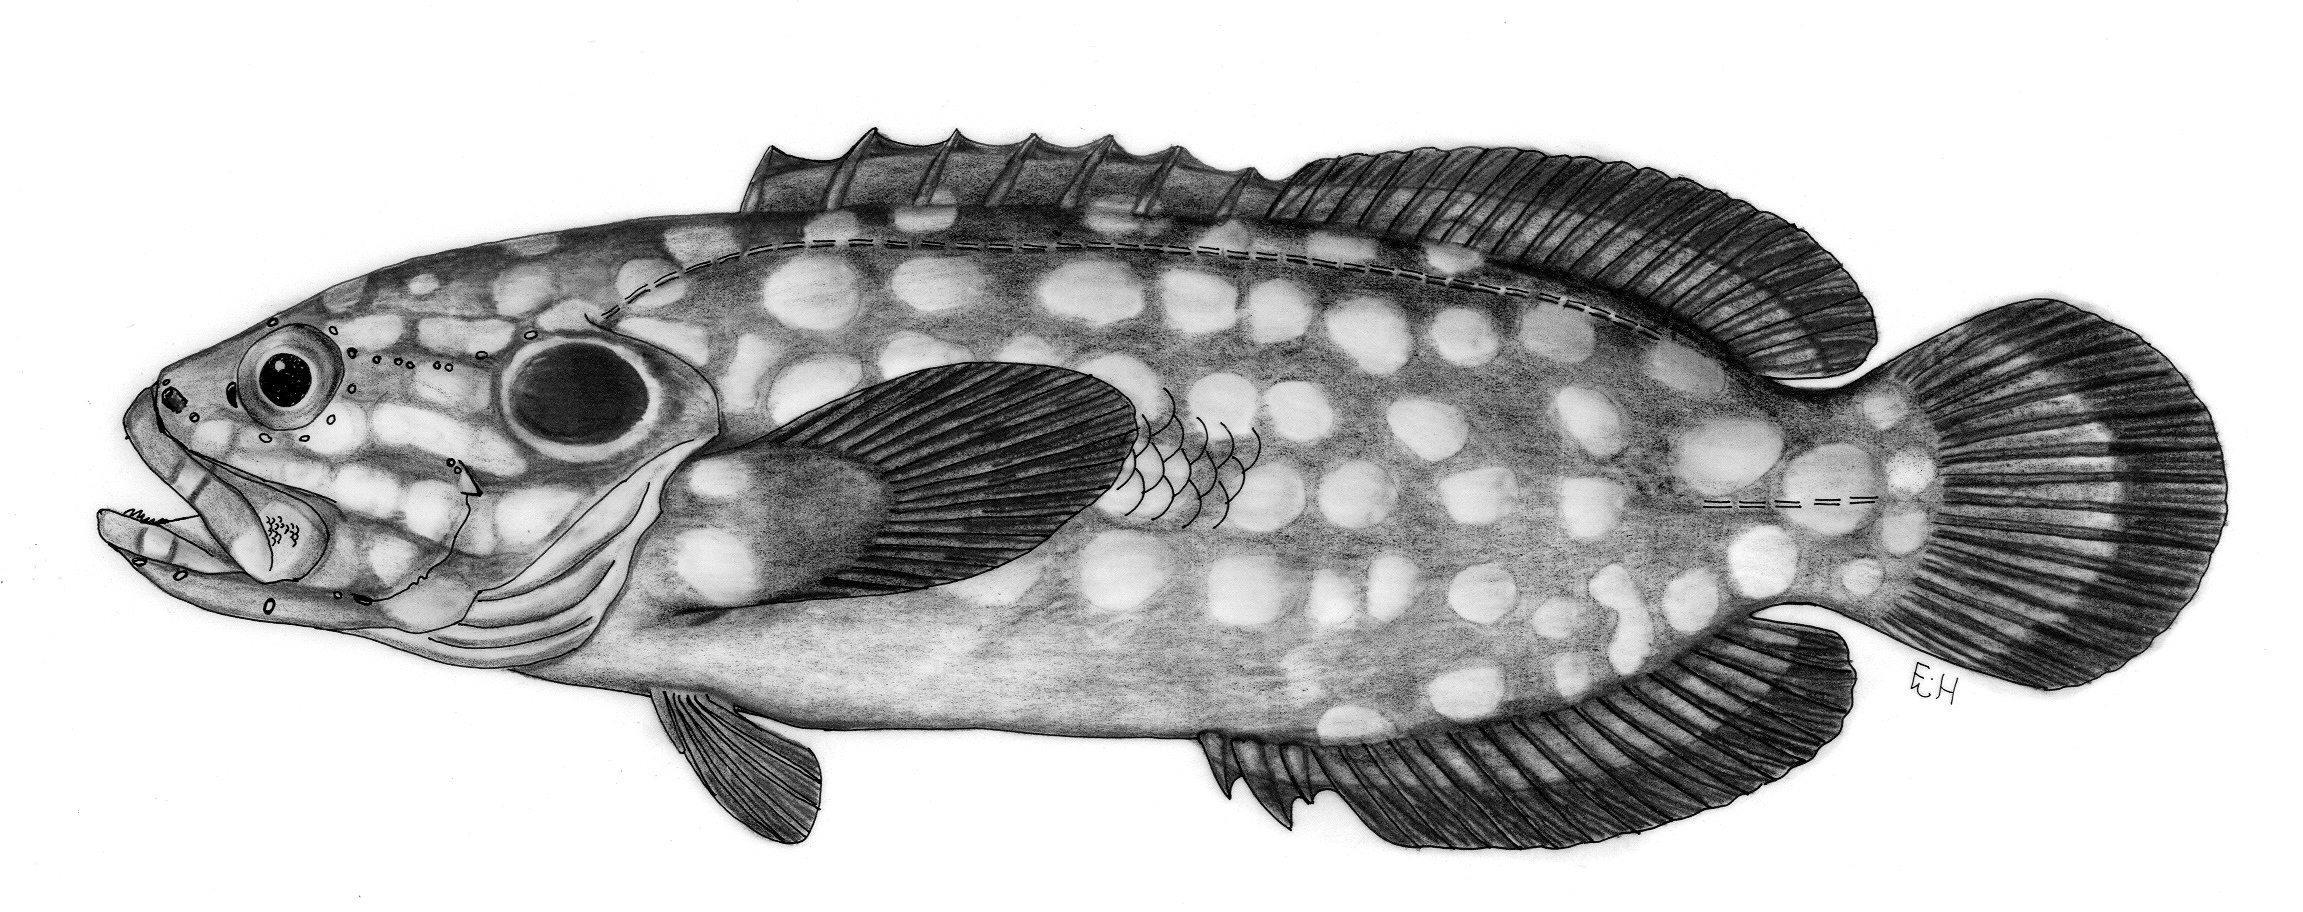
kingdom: Animalia
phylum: Chordata
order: Perciformes
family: Serranidae
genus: Pseudogramma
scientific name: Pseudogramma guineensis
